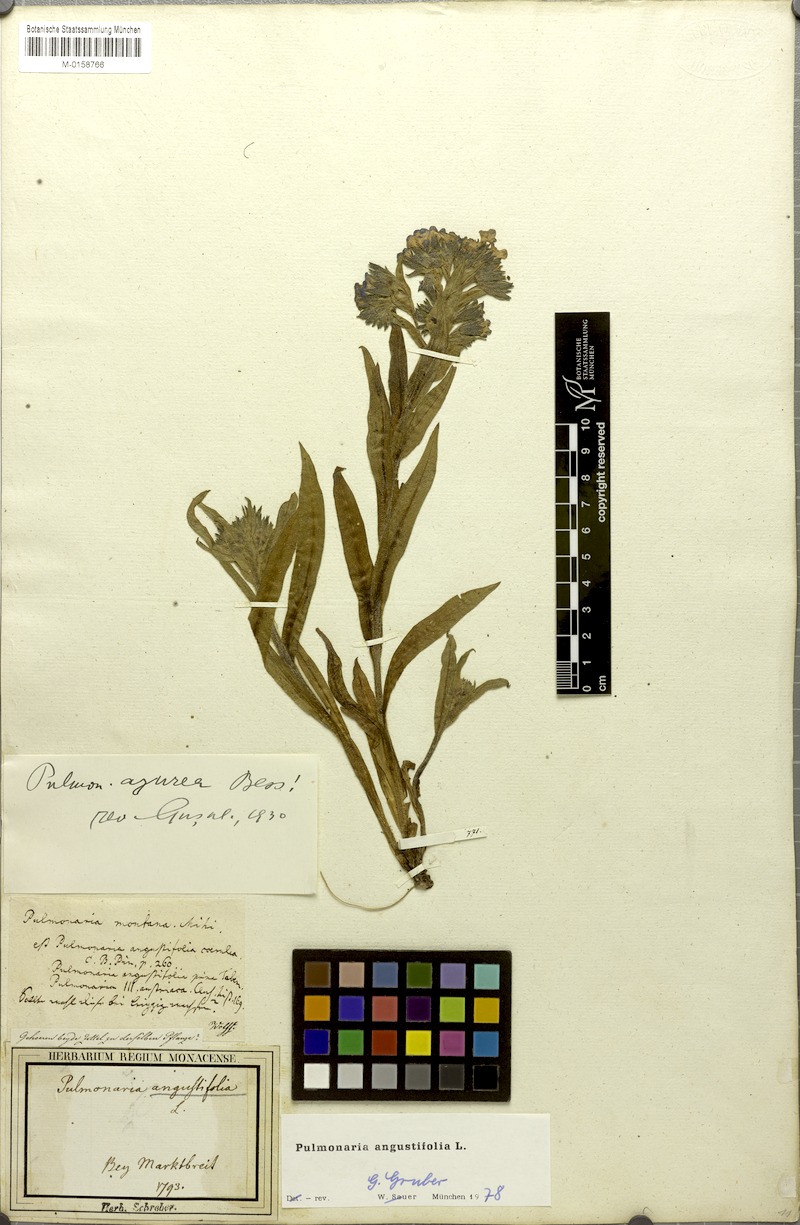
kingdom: Plantae
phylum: Tracheophyta
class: Magnoliopsida
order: Boraginales
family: Boraginaceae
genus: Pulmonaria
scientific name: Pulmonaria angustifolia
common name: Blue cowslip
